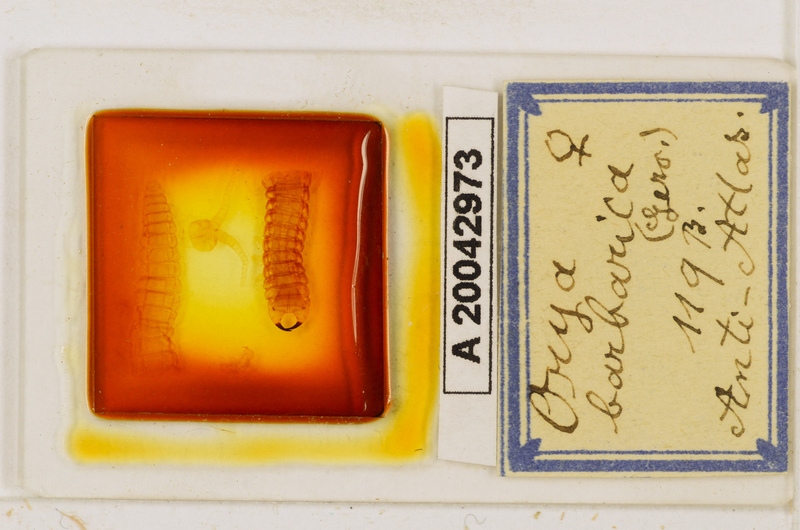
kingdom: Animalia
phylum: Arthropoda
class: Chilopoda
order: Geophilomorpha
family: Oryidae
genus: Orya
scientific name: Orya barbarica
